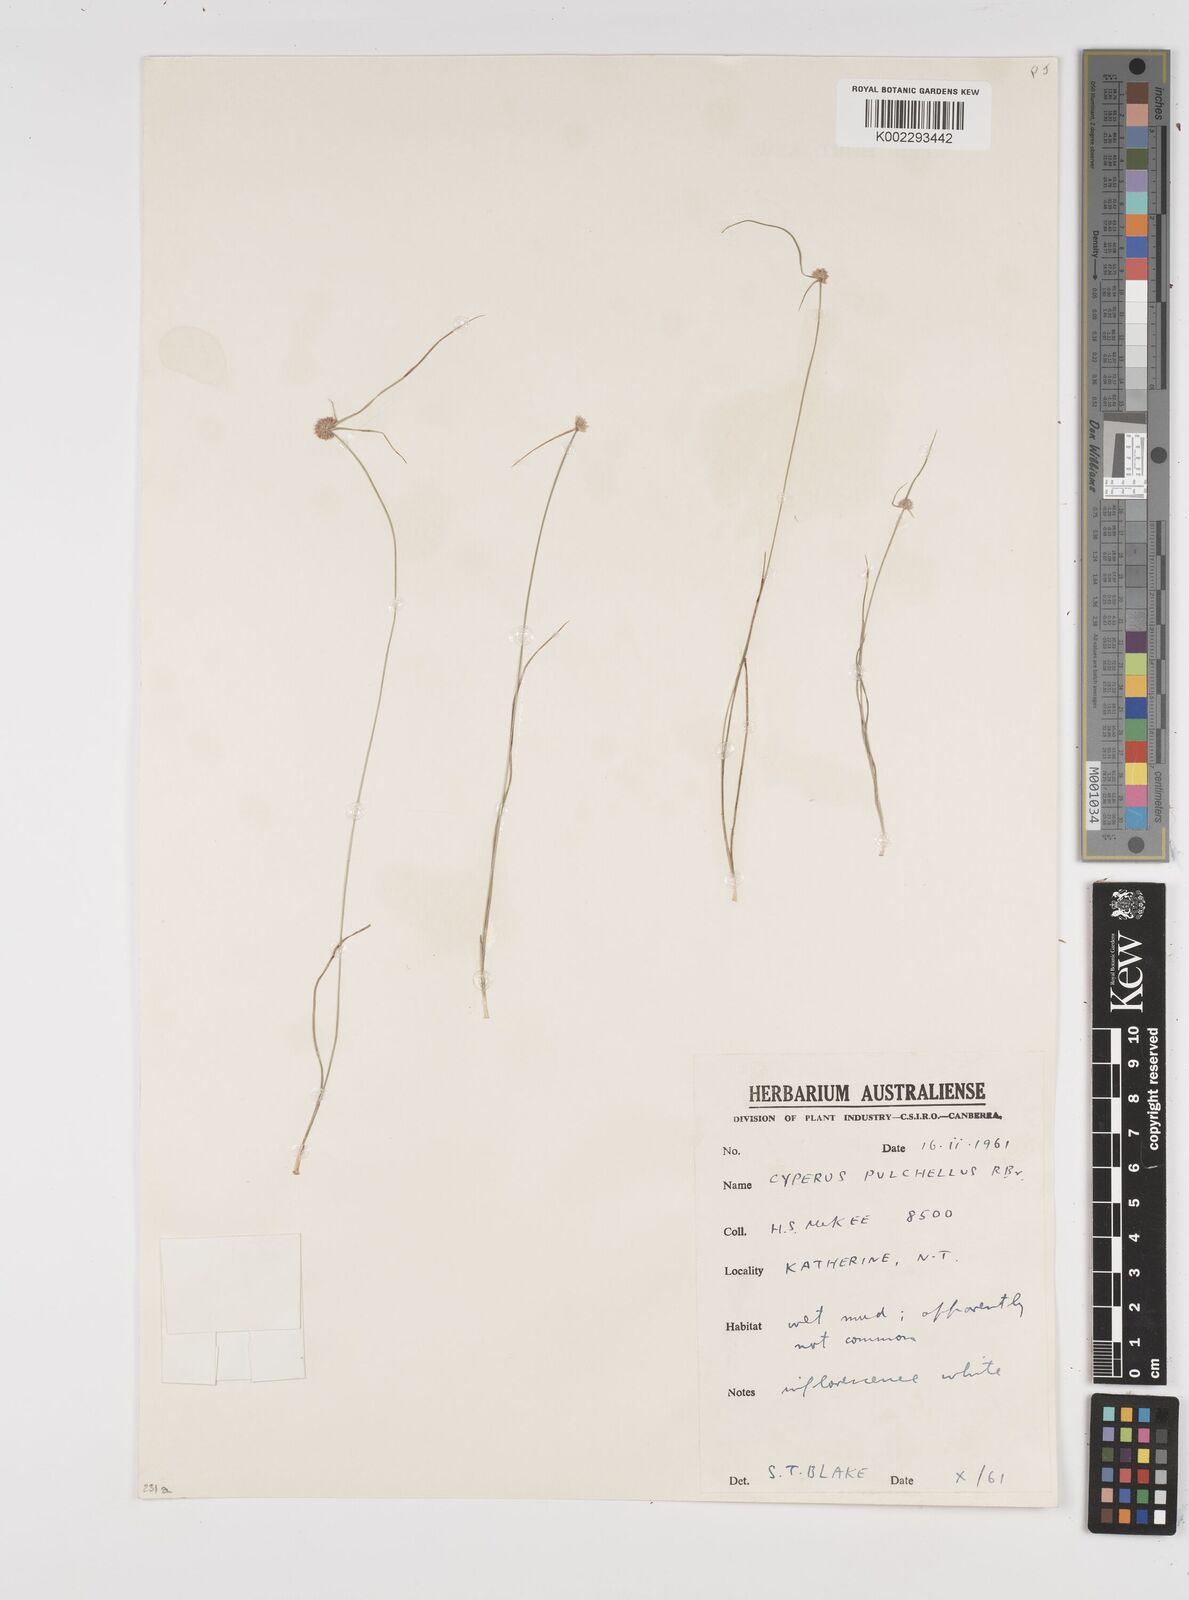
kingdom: Plantae
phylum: Tracheophyta
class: Liliopsida
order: Poales
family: Cyperaceae
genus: Cyperus
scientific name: Cyperus pulchellus
